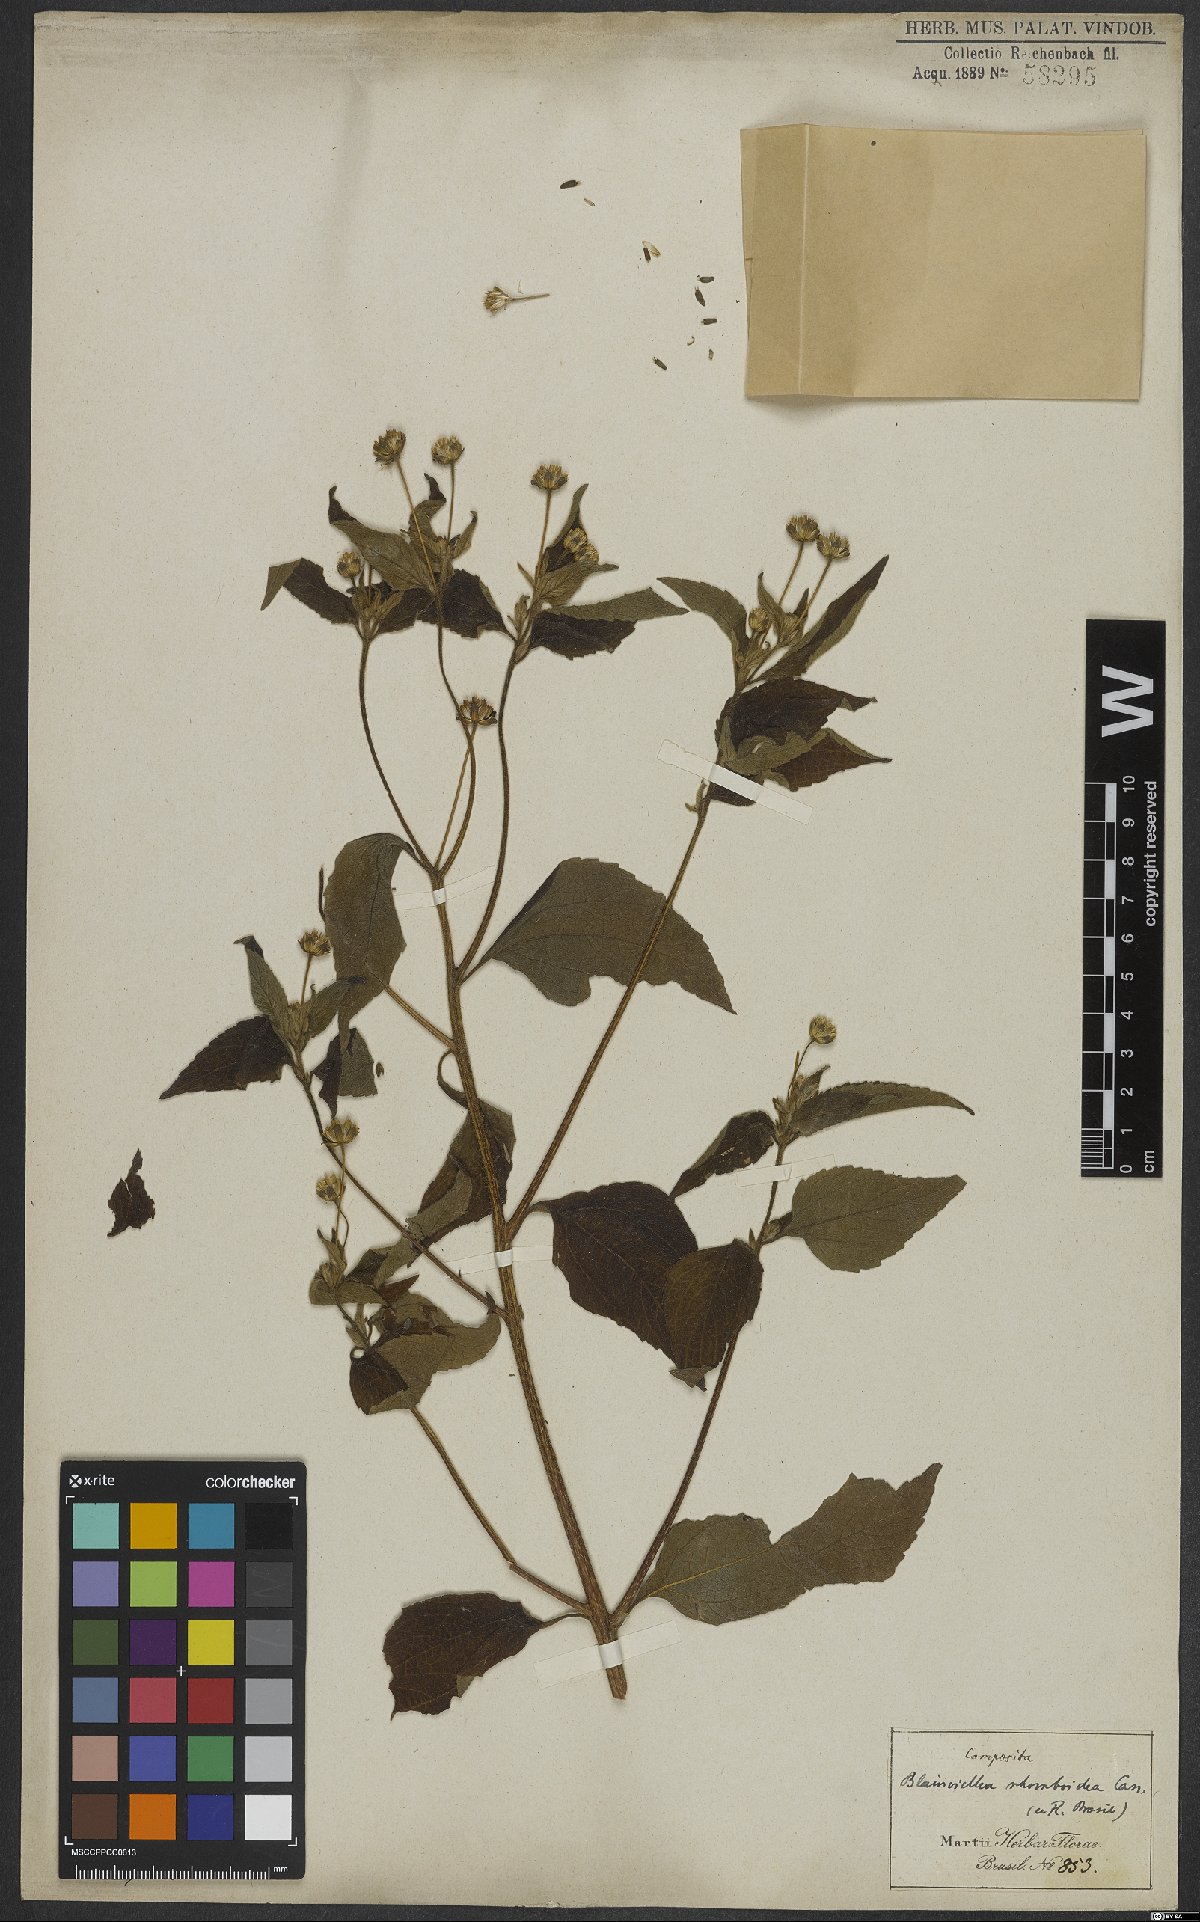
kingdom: Plantae
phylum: Tracheophyta
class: Magnoliopsida
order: Asterales
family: Asteraceae
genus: Blainvillea
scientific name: Blainvillea dichotoma
